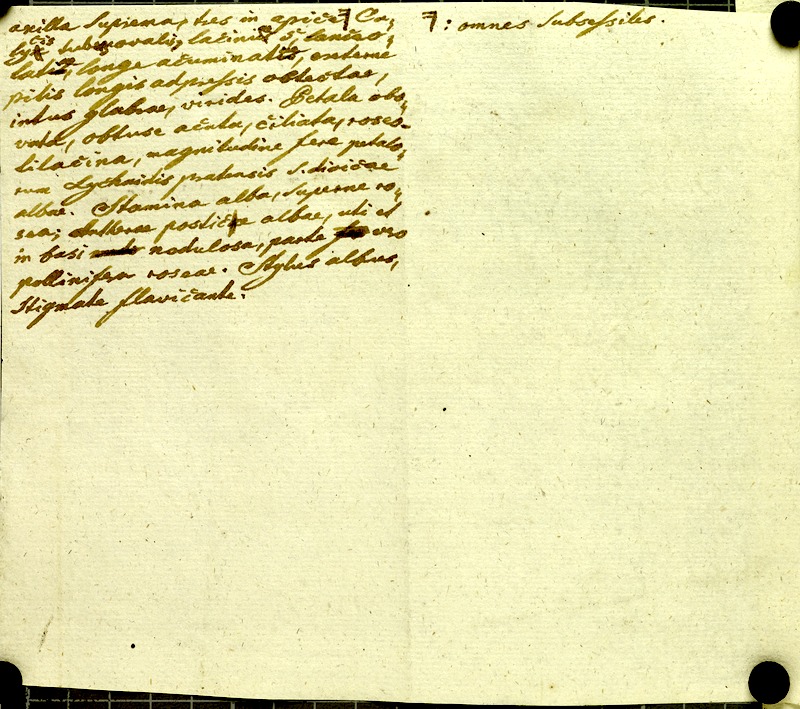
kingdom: Plantae
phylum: Tracheophyta
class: Magnoliopsida
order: Myrtales
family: Melastomataceae
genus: Chaetogastra
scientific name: Chaetogastra gracilis
